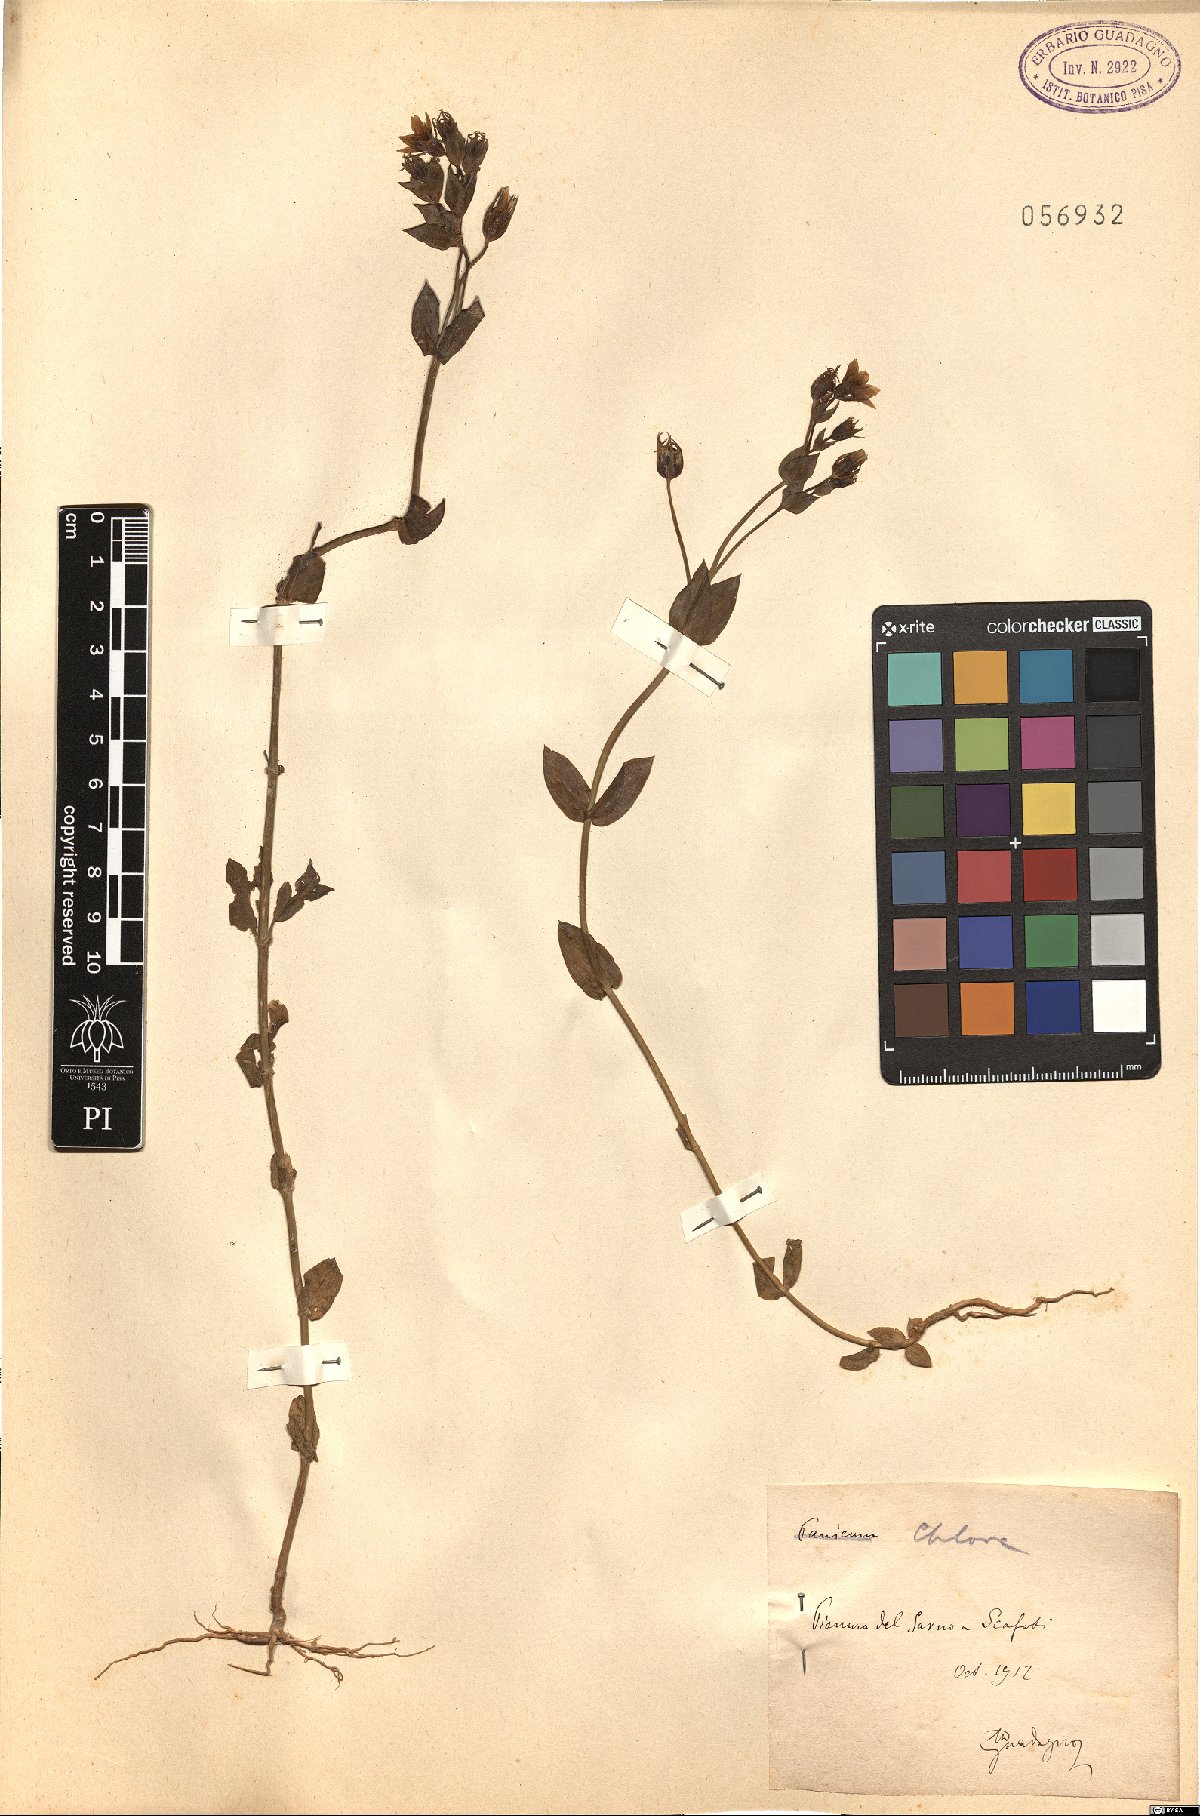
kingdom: Plantae
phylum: Tracheophyta
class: Magnoliopsida
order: Gentianales
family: Gentianaceae
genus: Blackstonia
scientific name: Blackstonia
